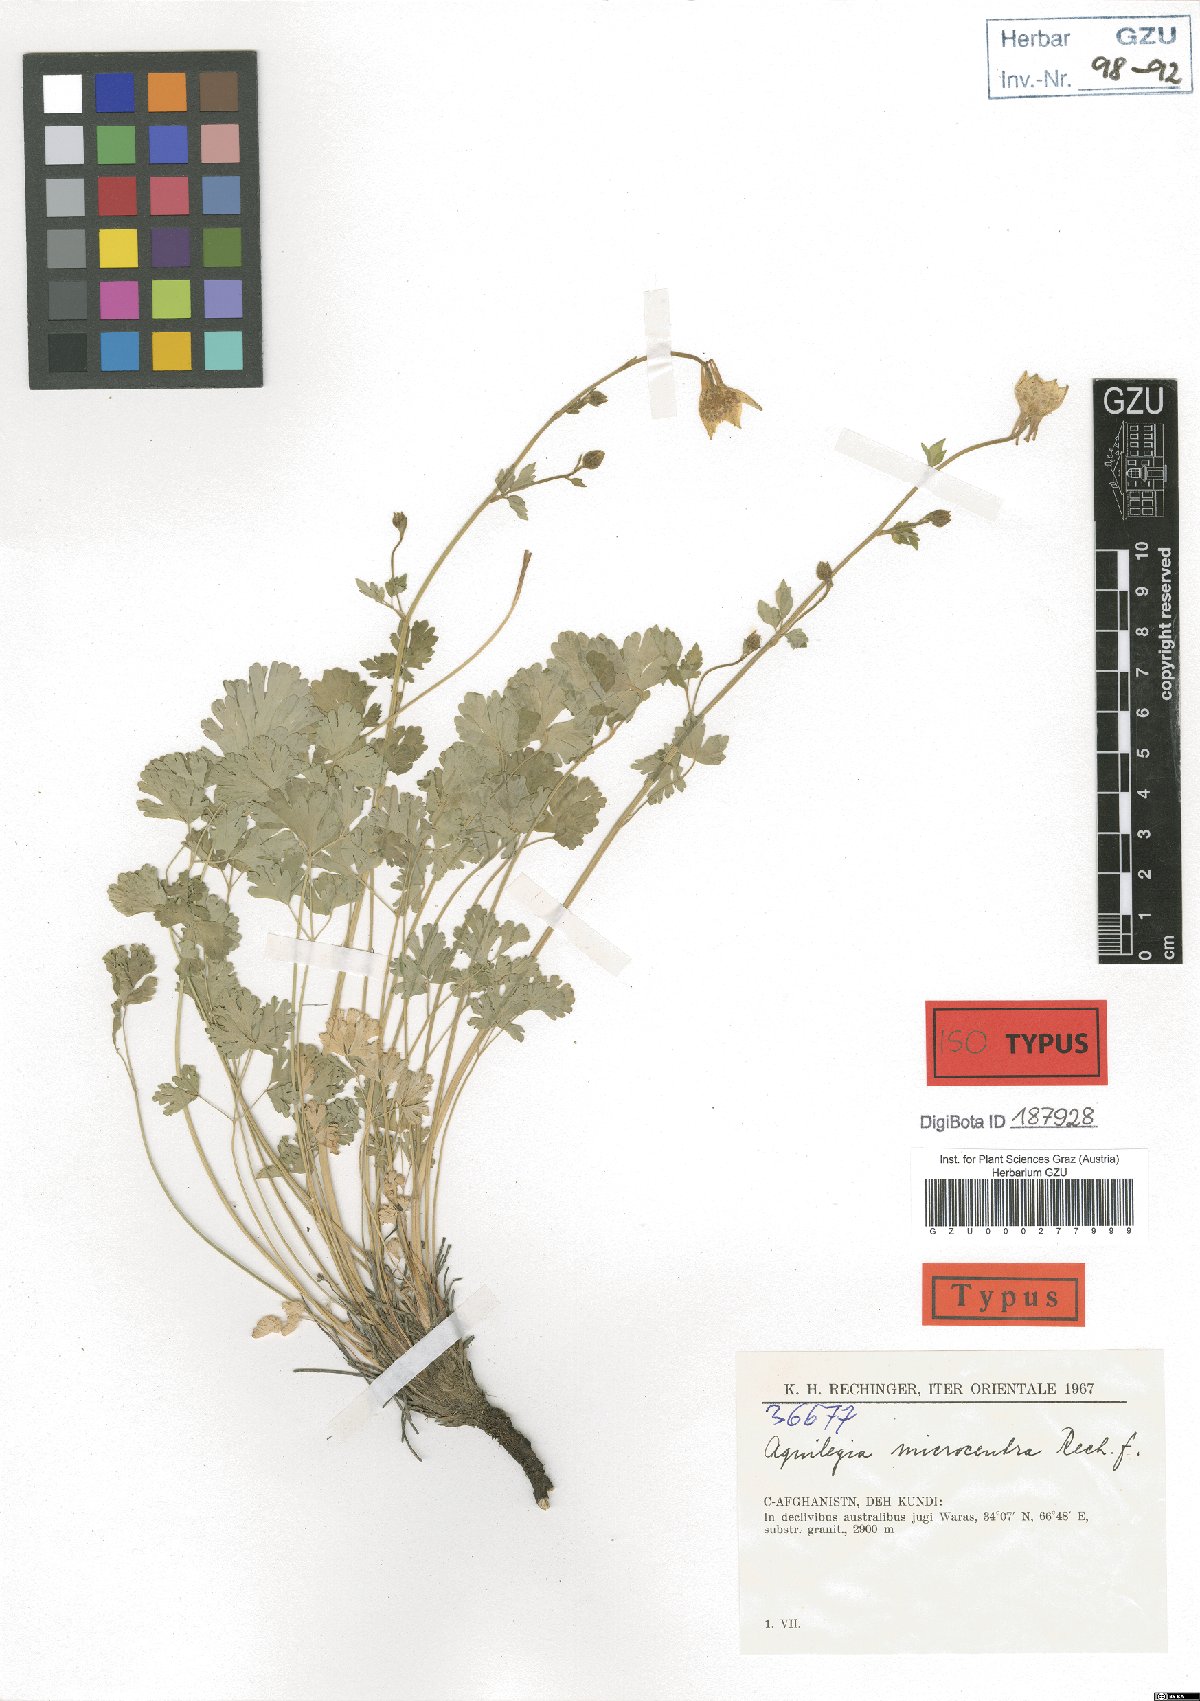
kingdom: Plantae
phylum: Tracheophyta
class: Magnoliopsida
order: Ranunculales
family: Ranunculaceae
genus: Aquilegia
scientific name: Aquilegia microcentra
